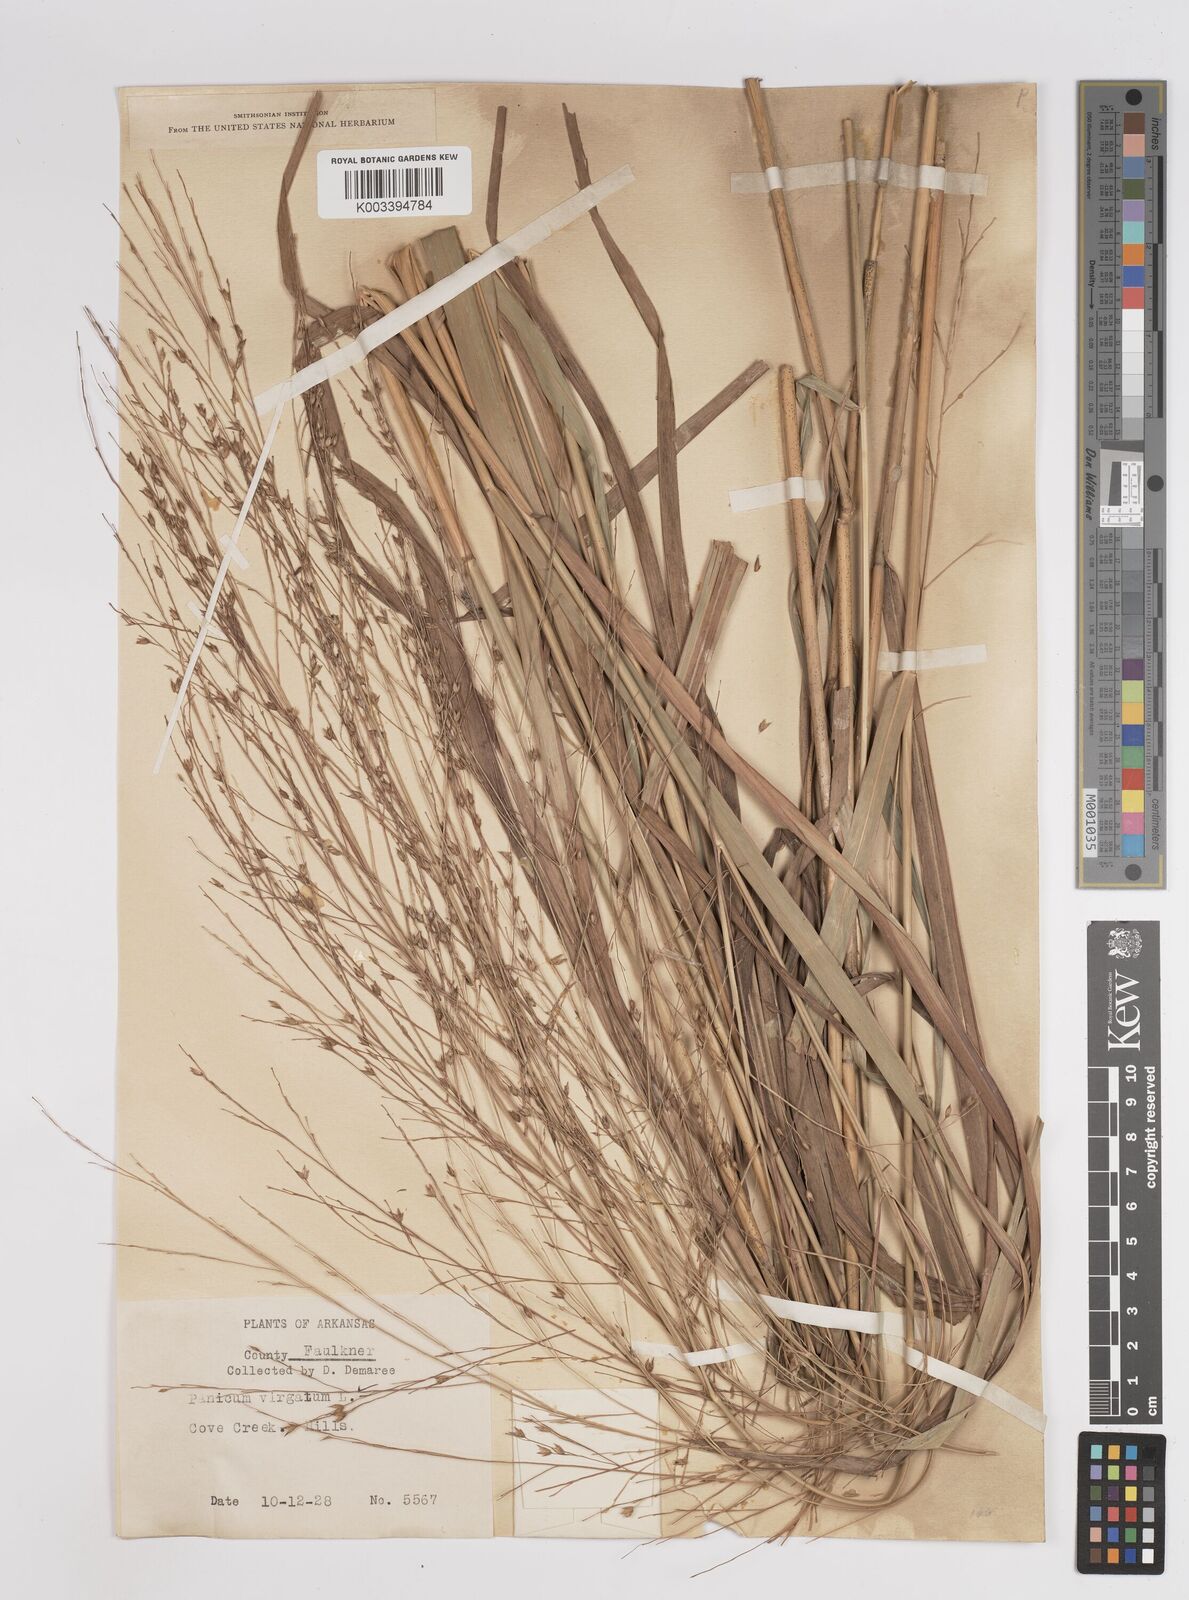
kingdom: Plantae
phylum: Tracheophyta
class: Liliopsida
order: Poales
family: Poaceae
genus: Panicum
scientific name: Panicum virgatum
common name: Switchgrass
